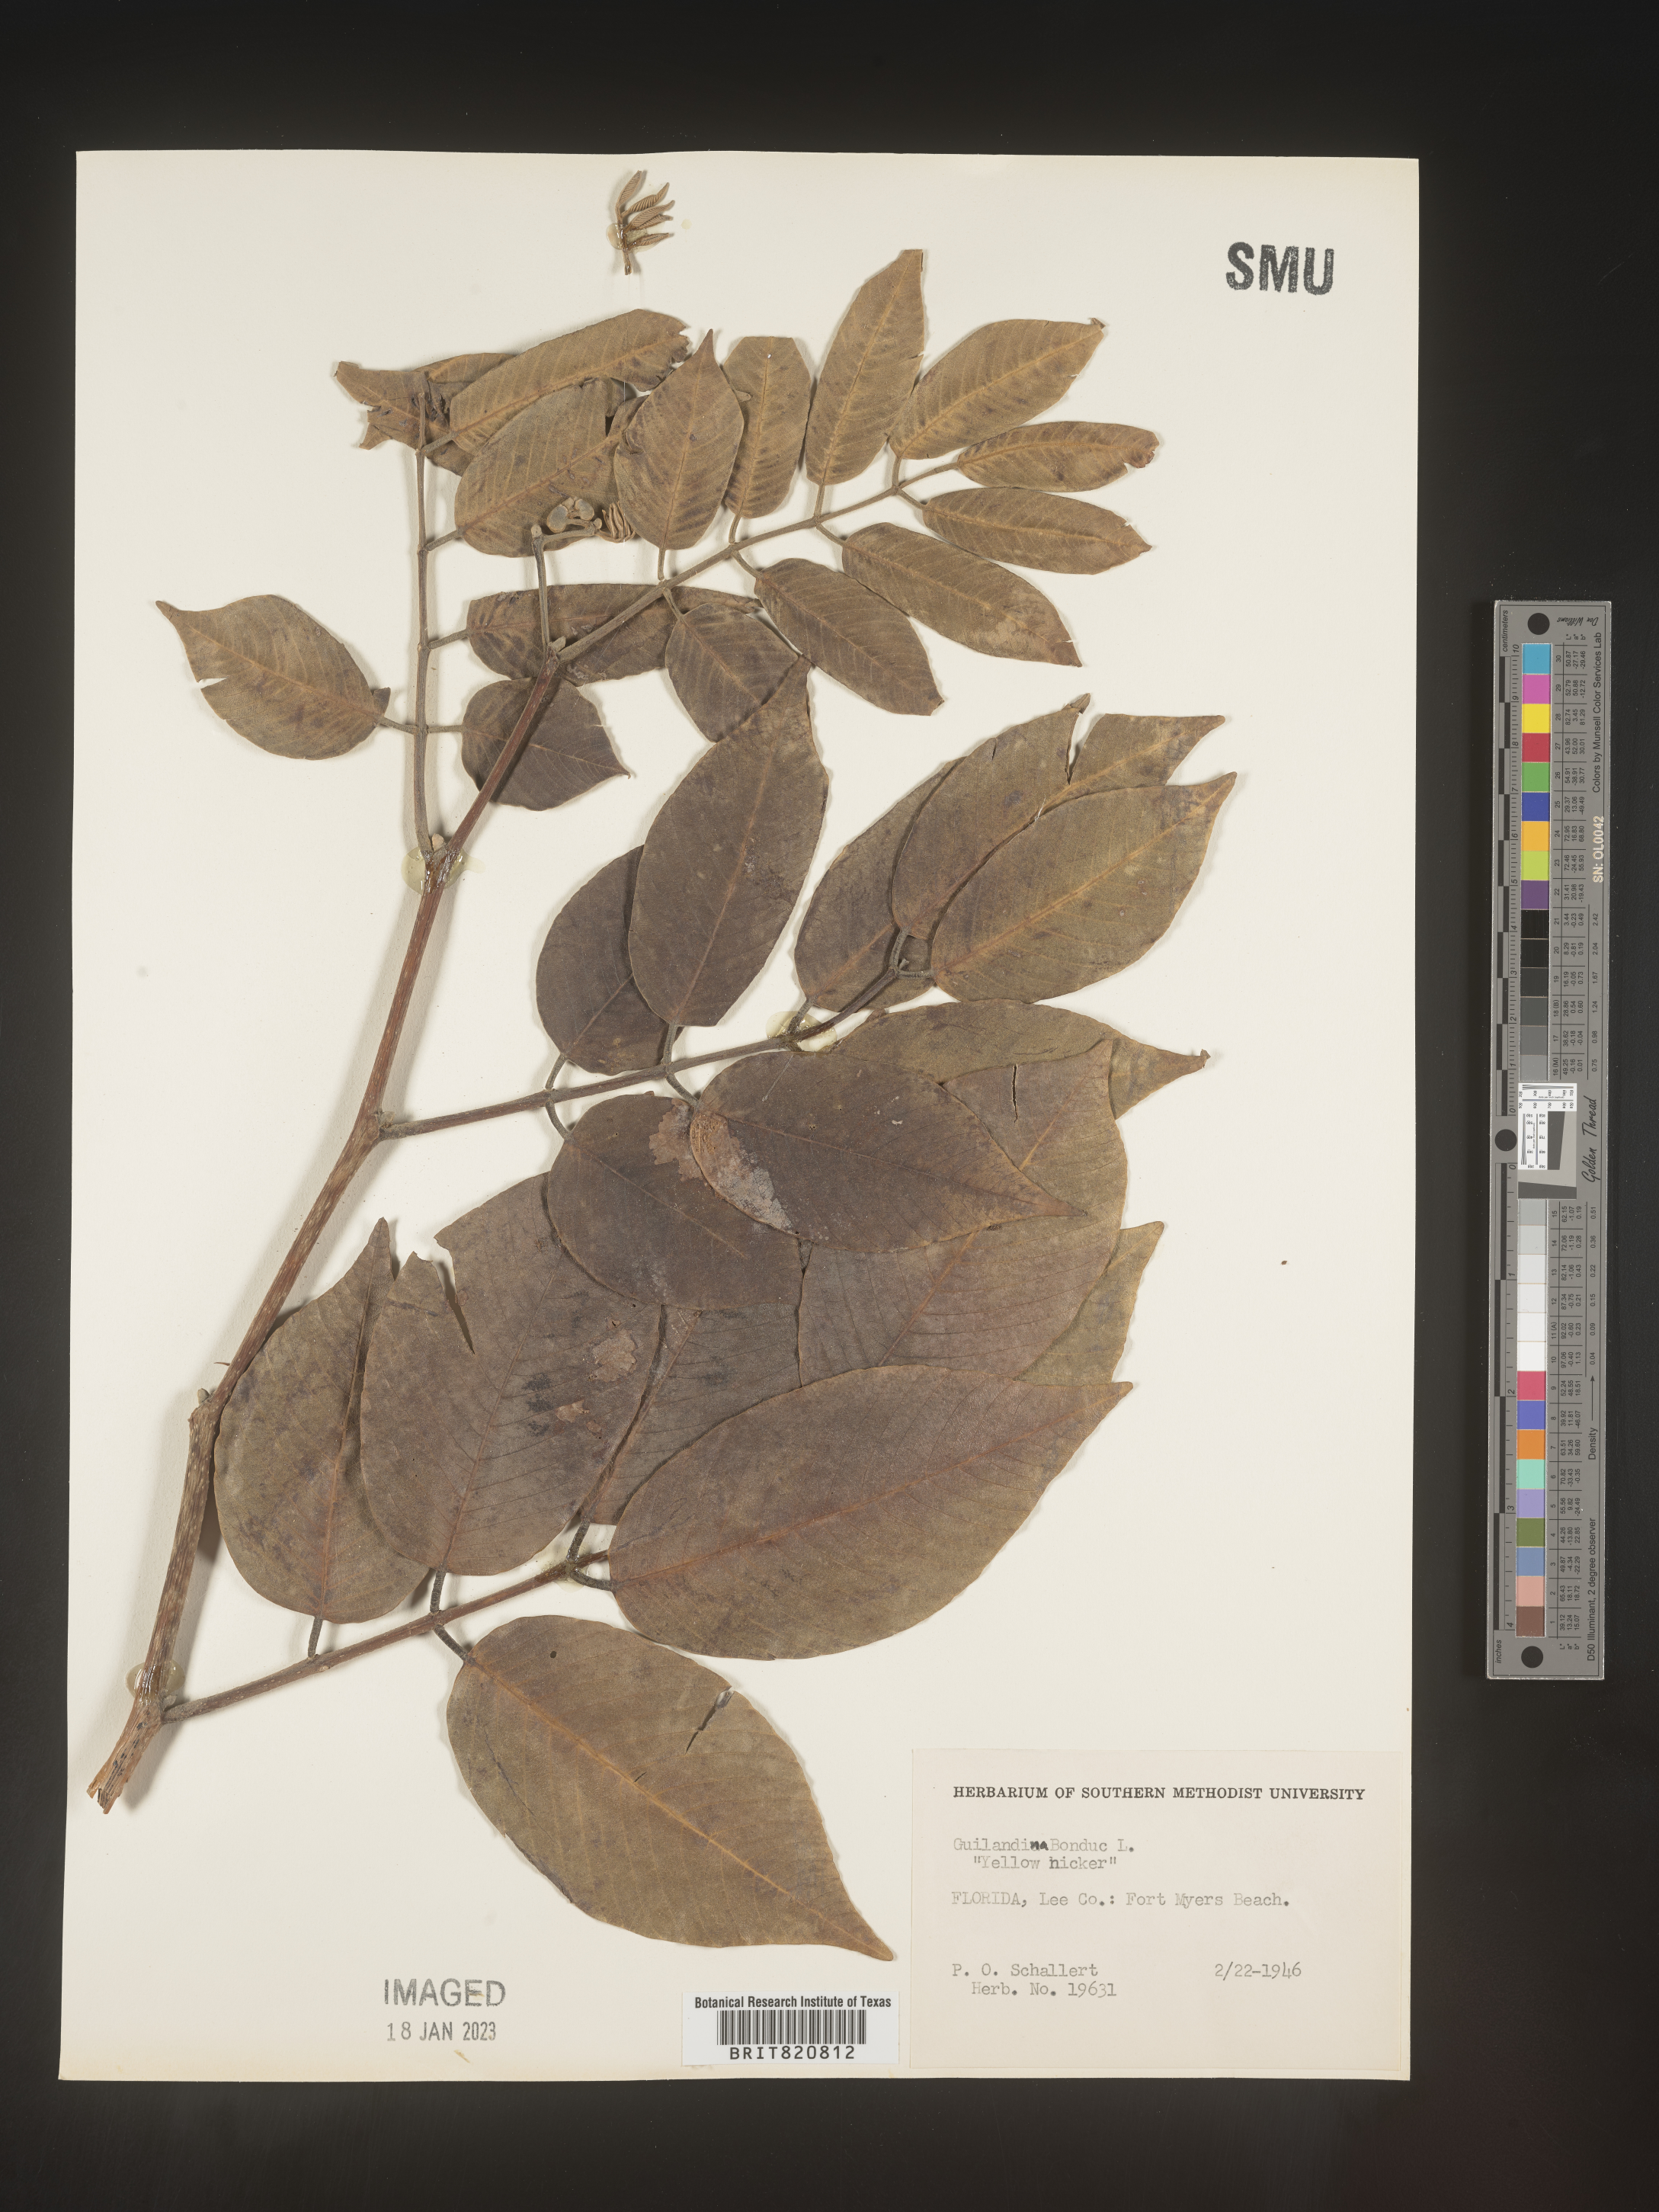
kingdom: Plantae
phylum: Tracheophyta
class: Magnoliopsida
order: Fabales
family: Fabaceae
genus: Guilandina
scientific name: Guilandina
